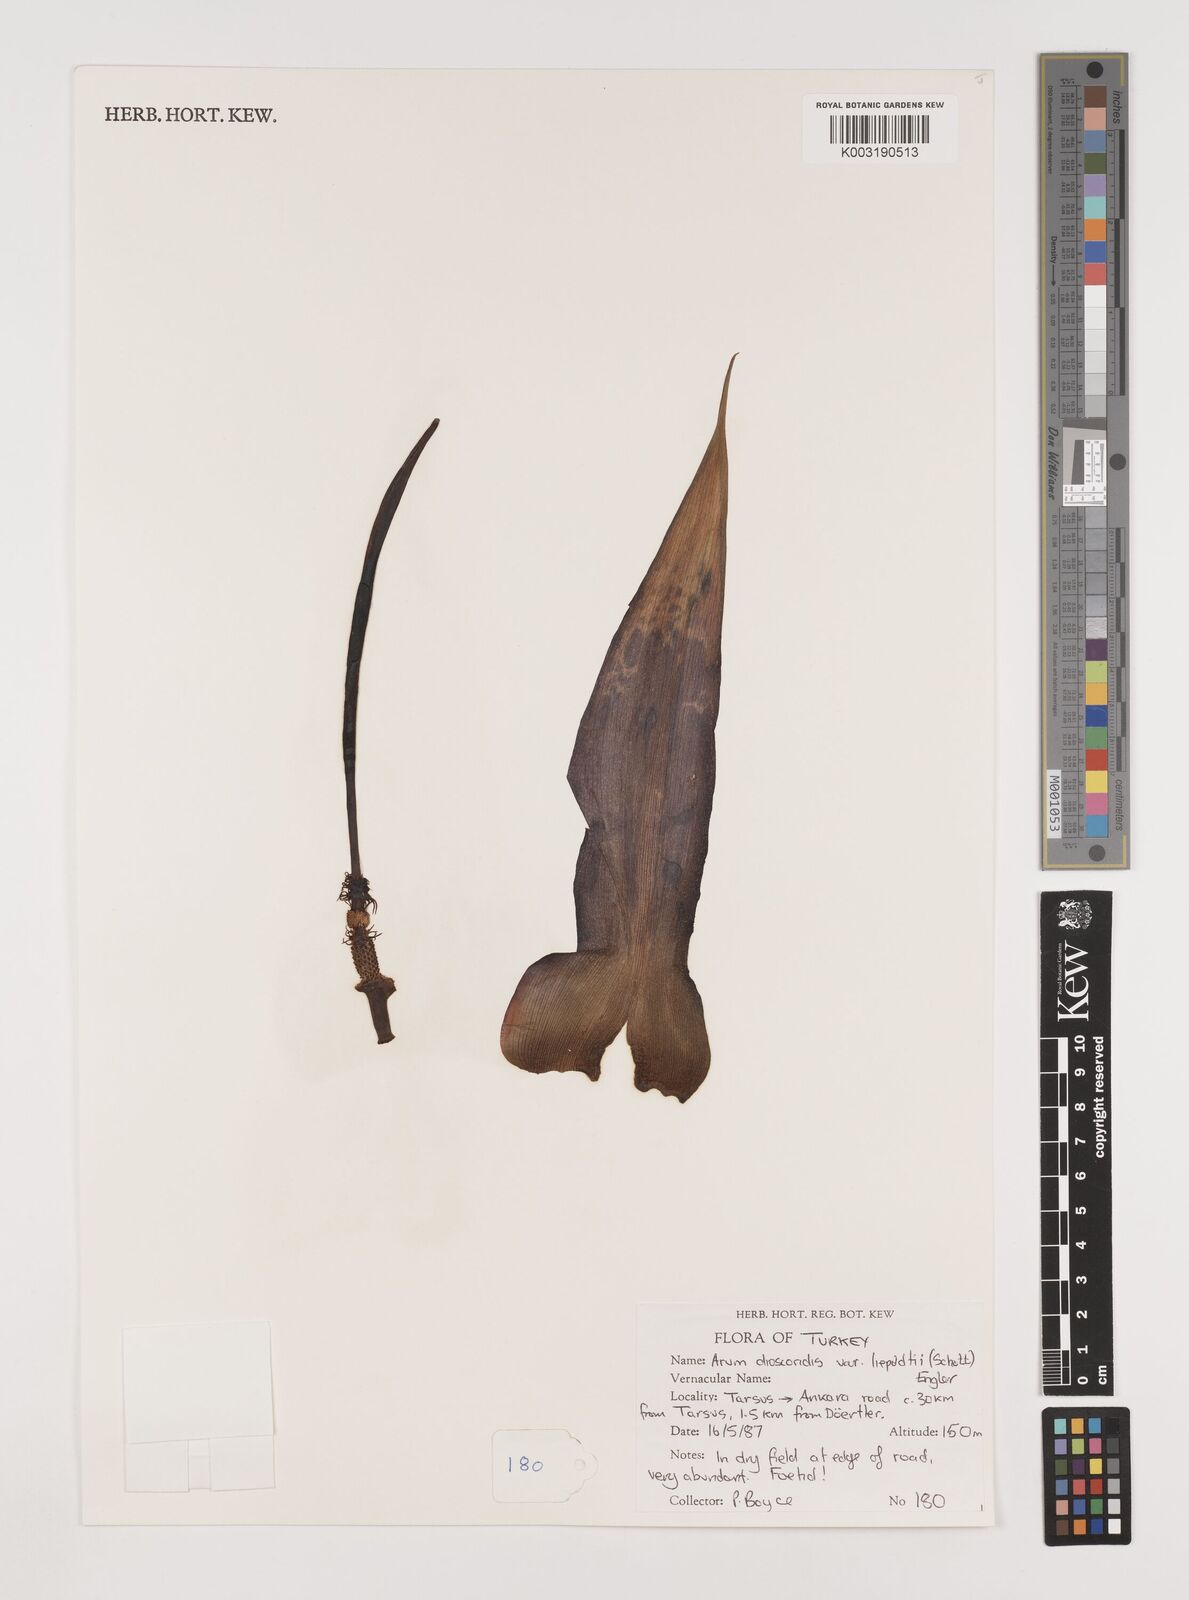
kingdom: Plantae
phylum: Tracheophyta
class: Liliopsida
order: Alismatales
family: Araceae
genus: Arum
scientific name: Arum dioscoridis
